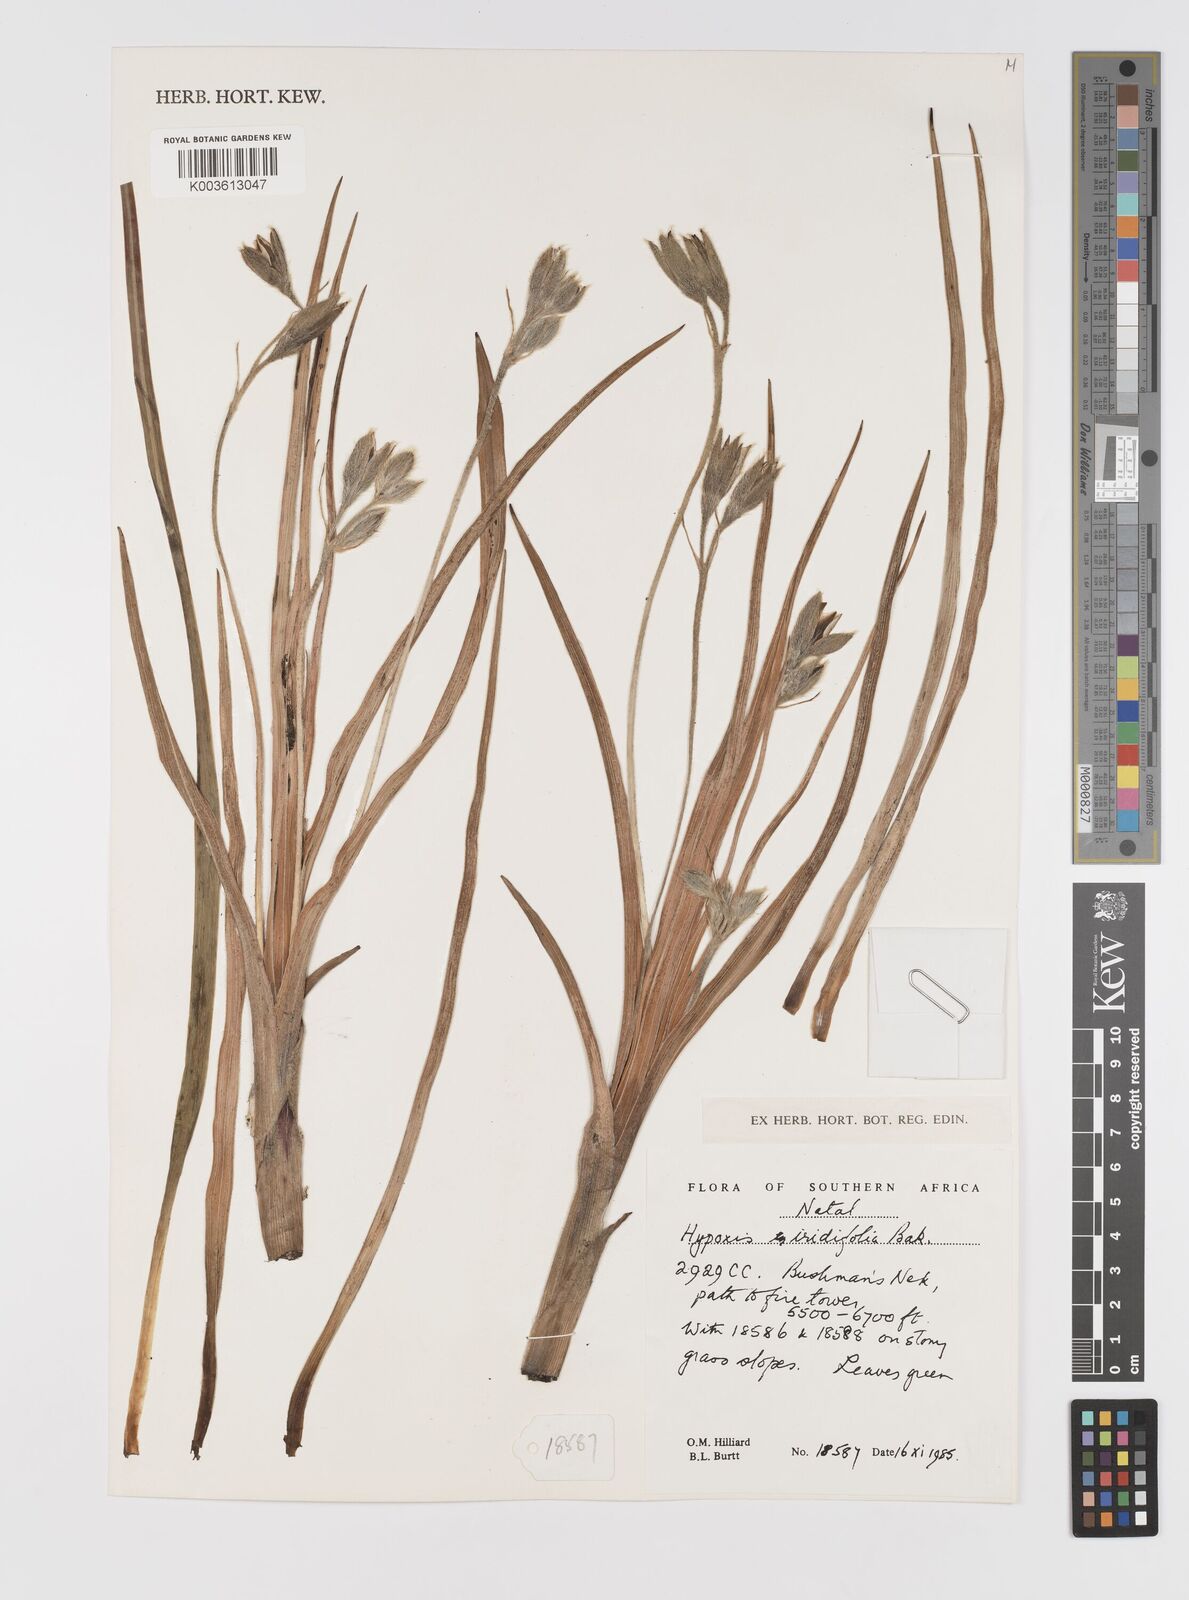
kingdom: Plantae
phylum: Tracheophyta
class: Liliopsida
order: Asparagales
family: Hypoxidaceae
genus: Hypoxis
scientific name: Hypoxis obtusa
